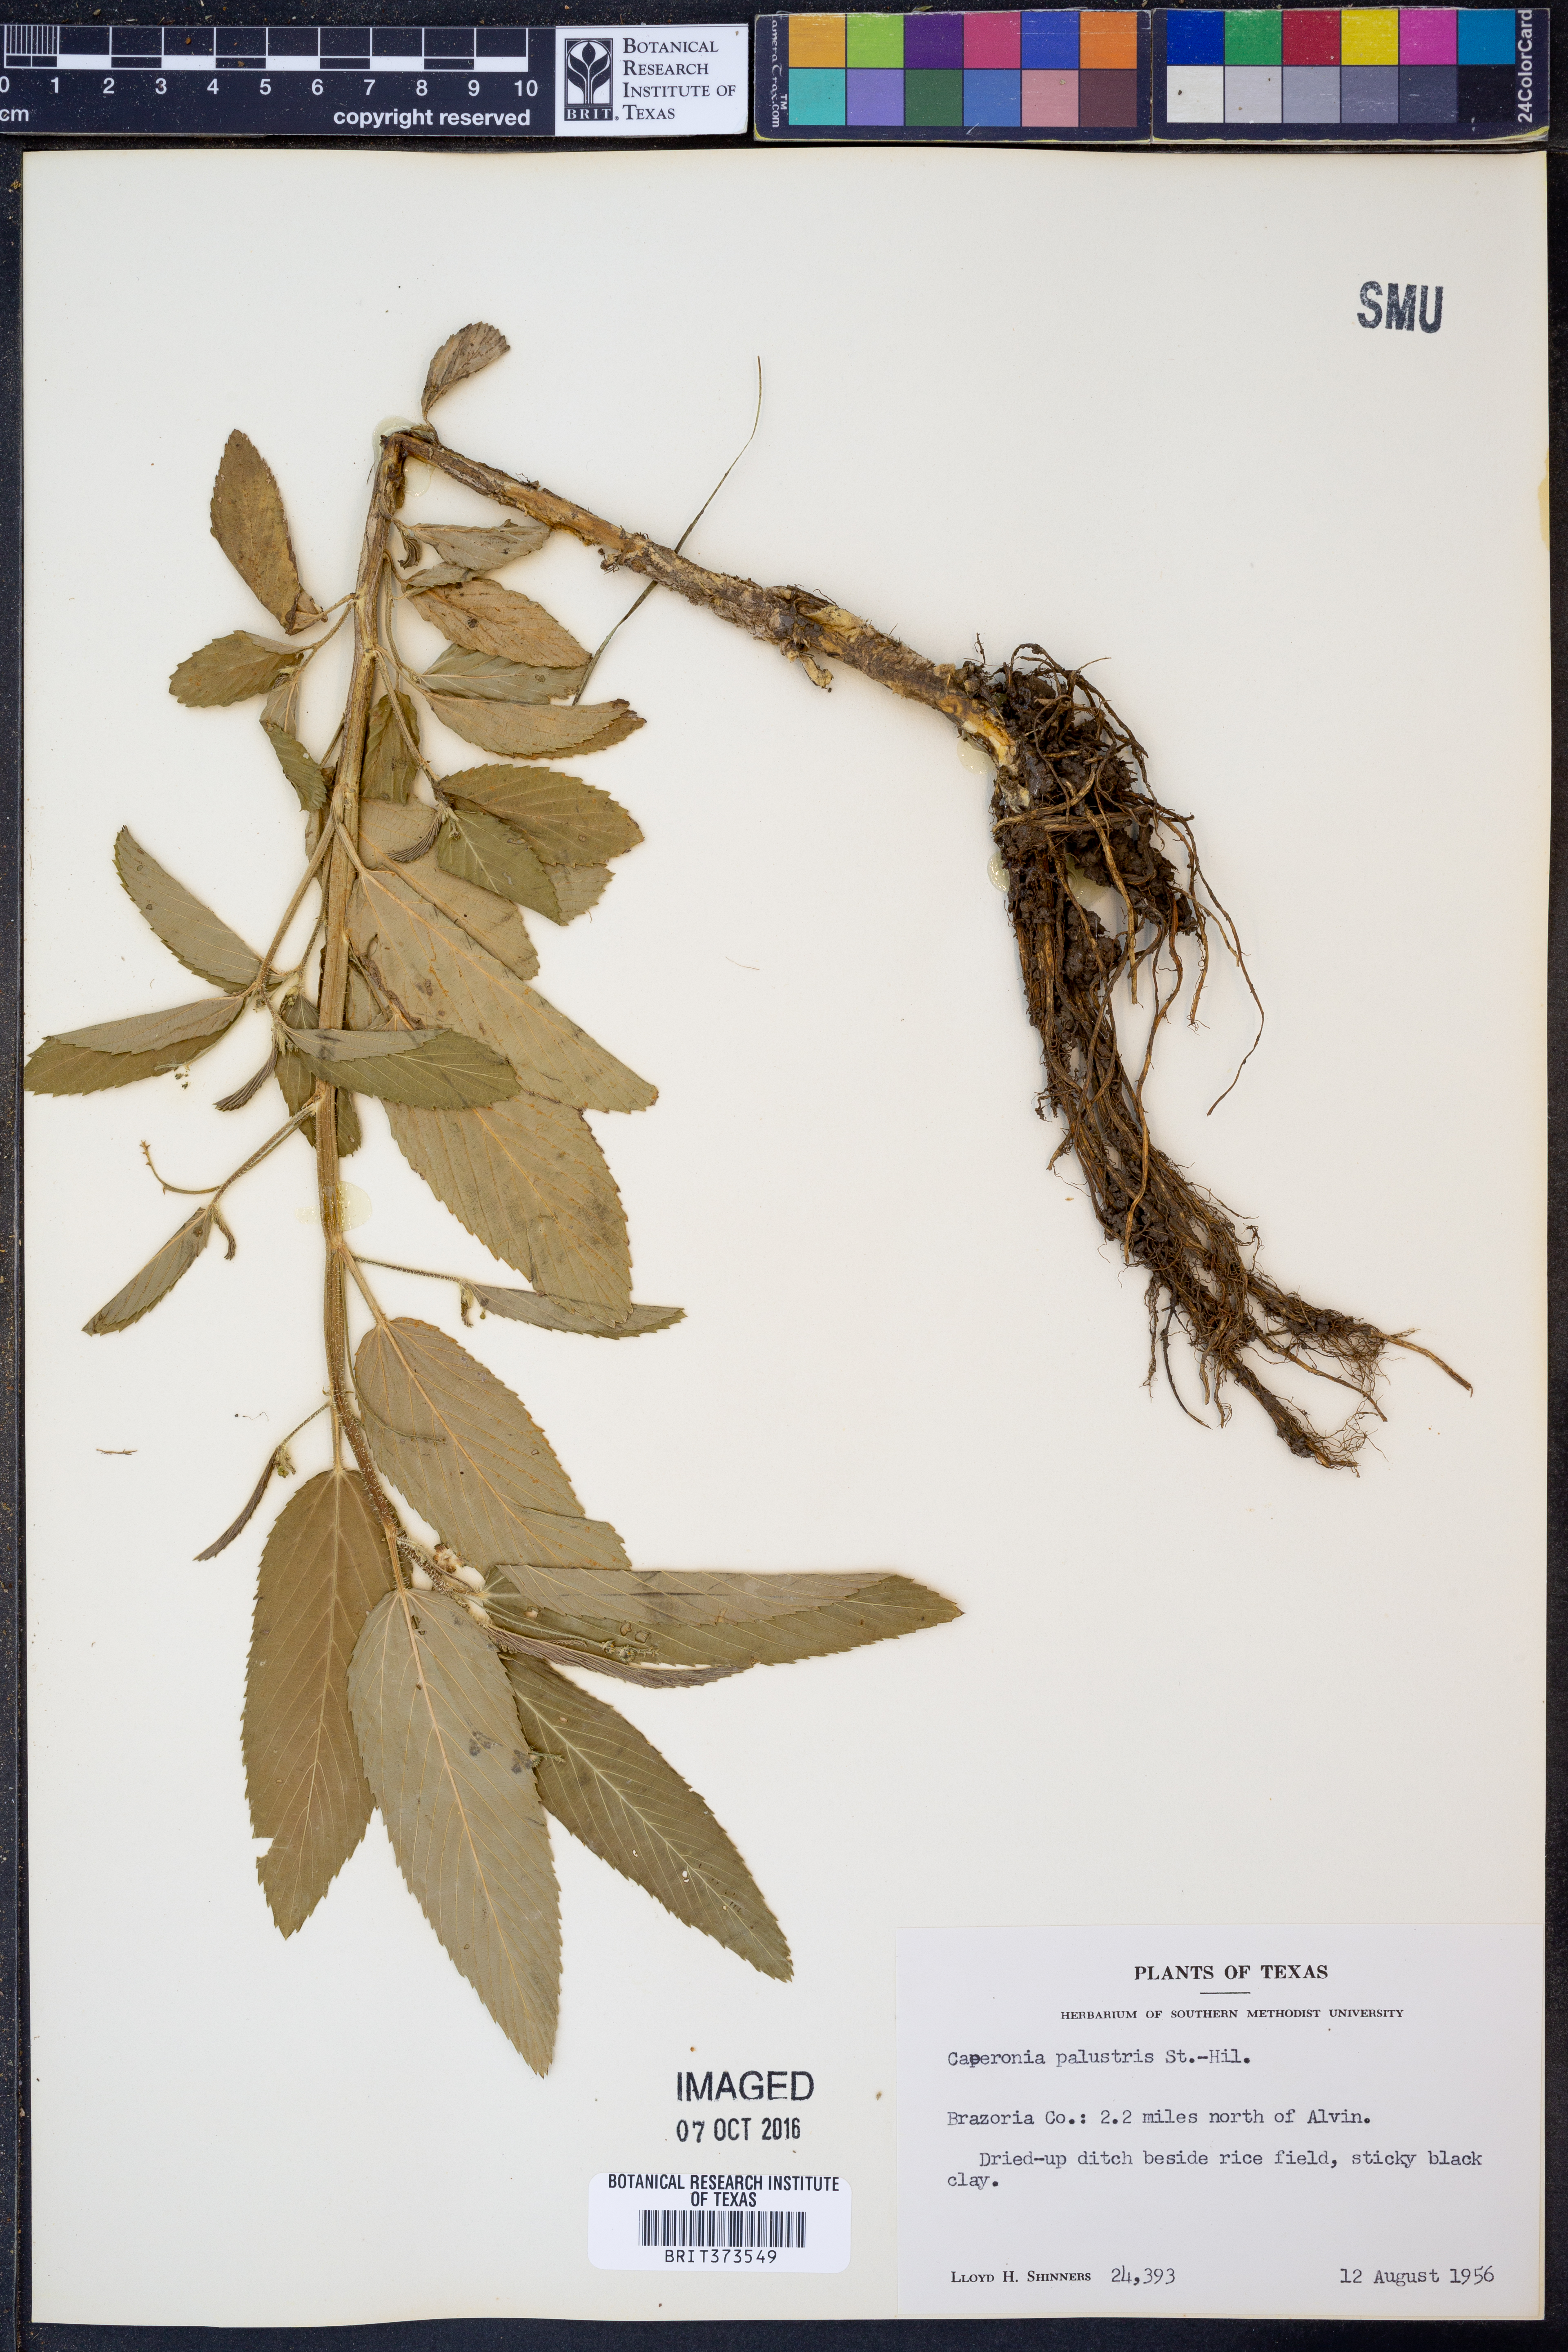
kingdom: Plantae
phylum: Tracheophyta
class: Magnoliopsida
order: Malpighiales
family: Euphorbiaceae
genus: Caperonia
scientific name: Caperonia palustris
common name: Sacatrapo
